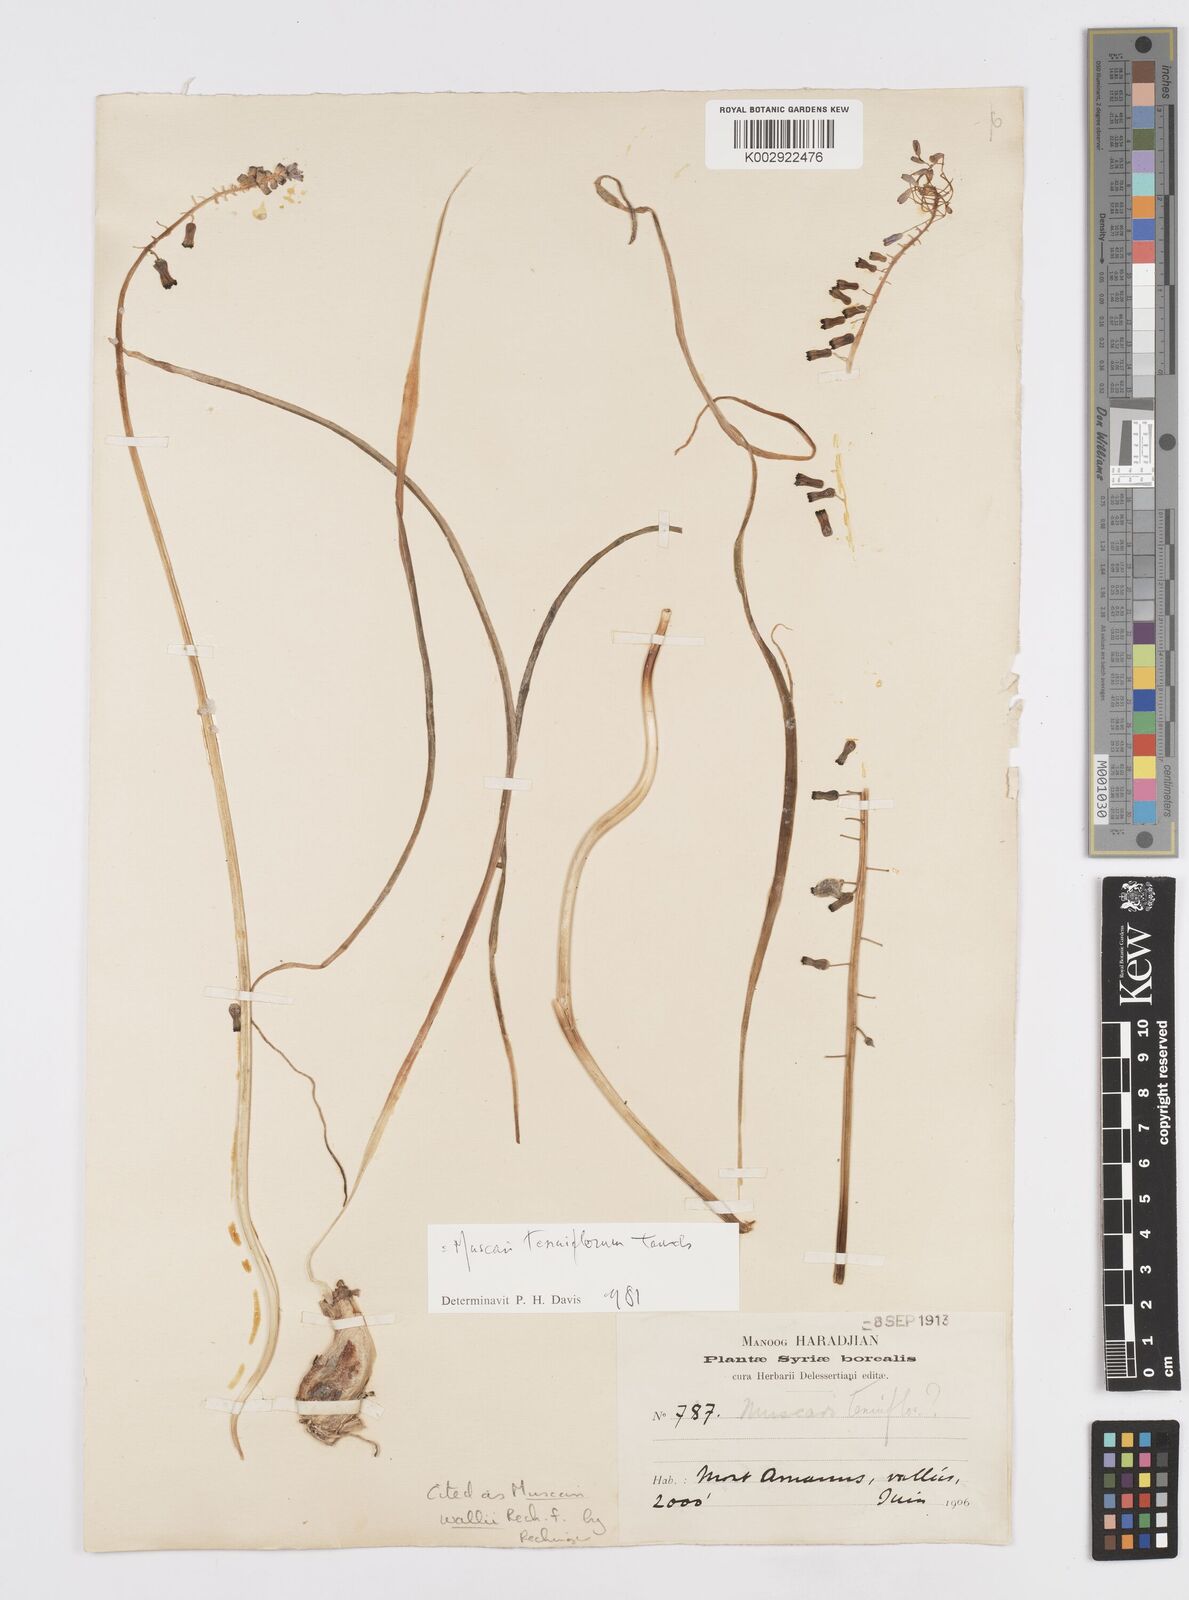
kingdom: Animalia
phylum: Mollusca
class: Cephalopoda
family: Neocomitidae
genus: Leopoldia
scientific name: Leopoldia
